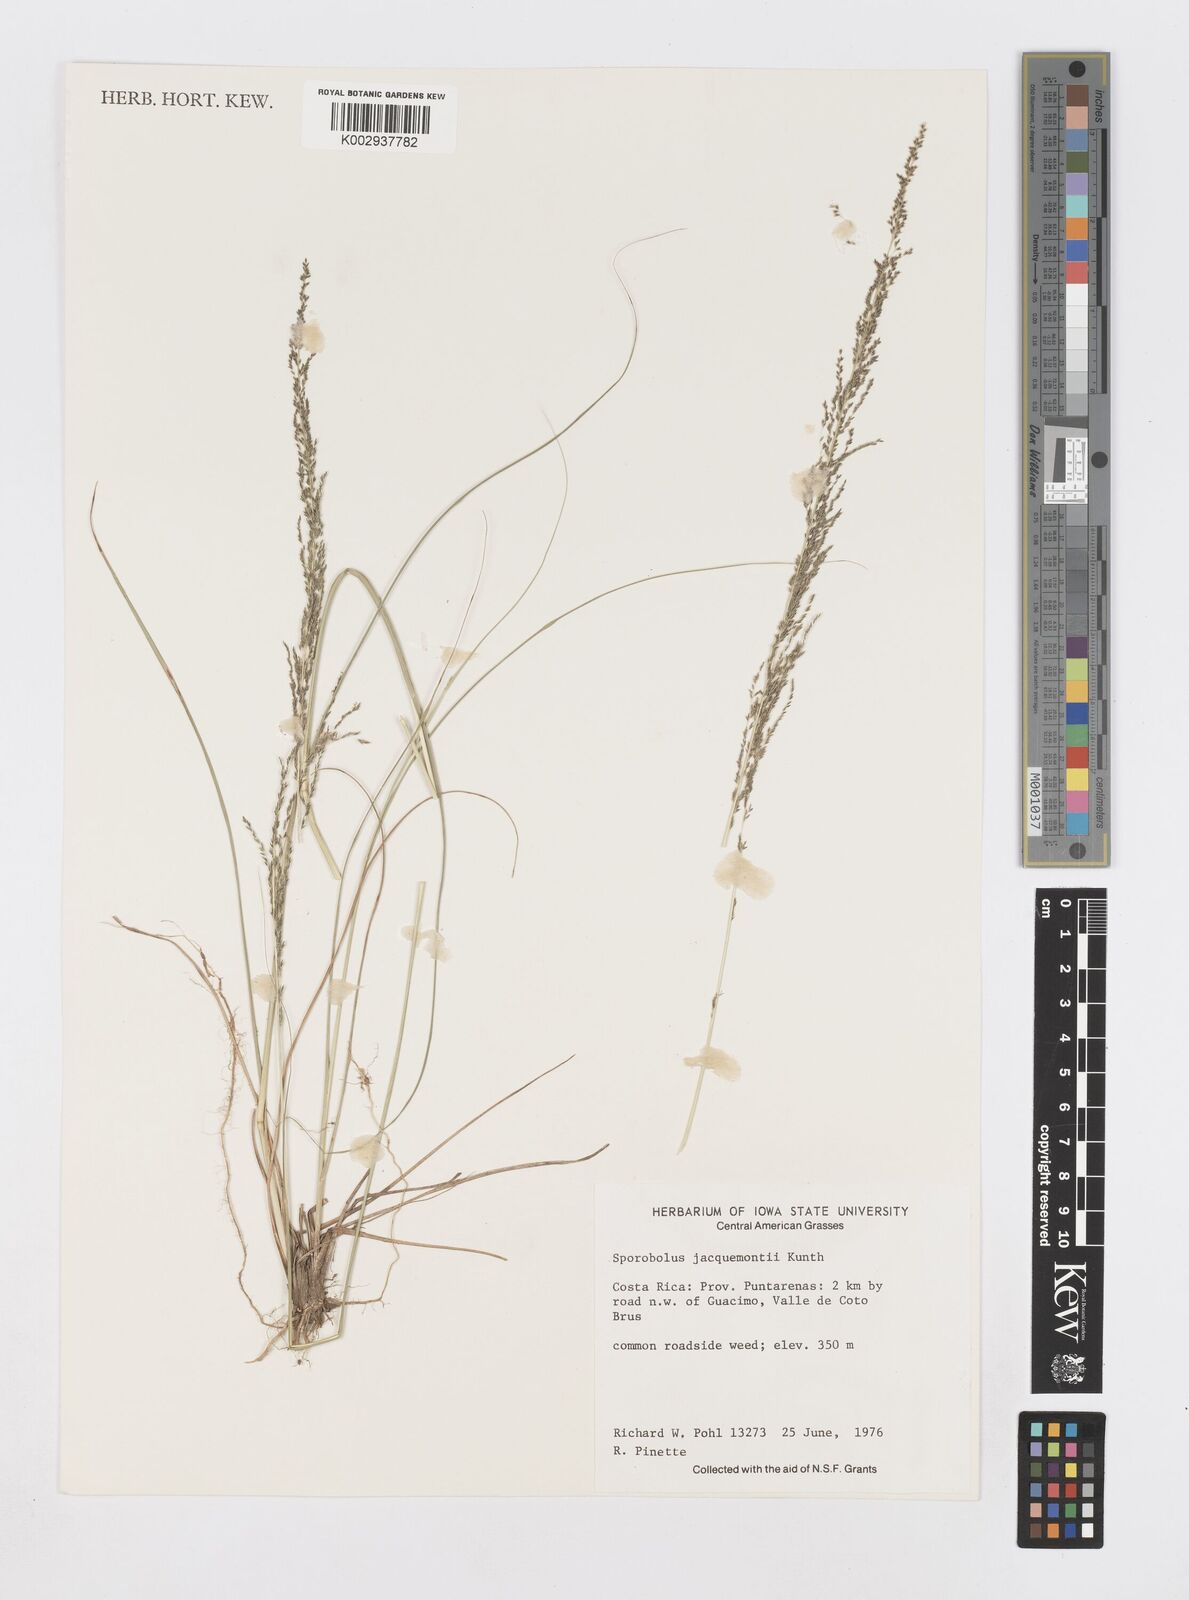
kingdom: Plantae
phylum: Tracheophyta
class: Liliopsida
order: Poales
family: Poaceae
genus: Sporobolus
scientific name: Sporobolus pyramidalis
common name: West indian dropseed
